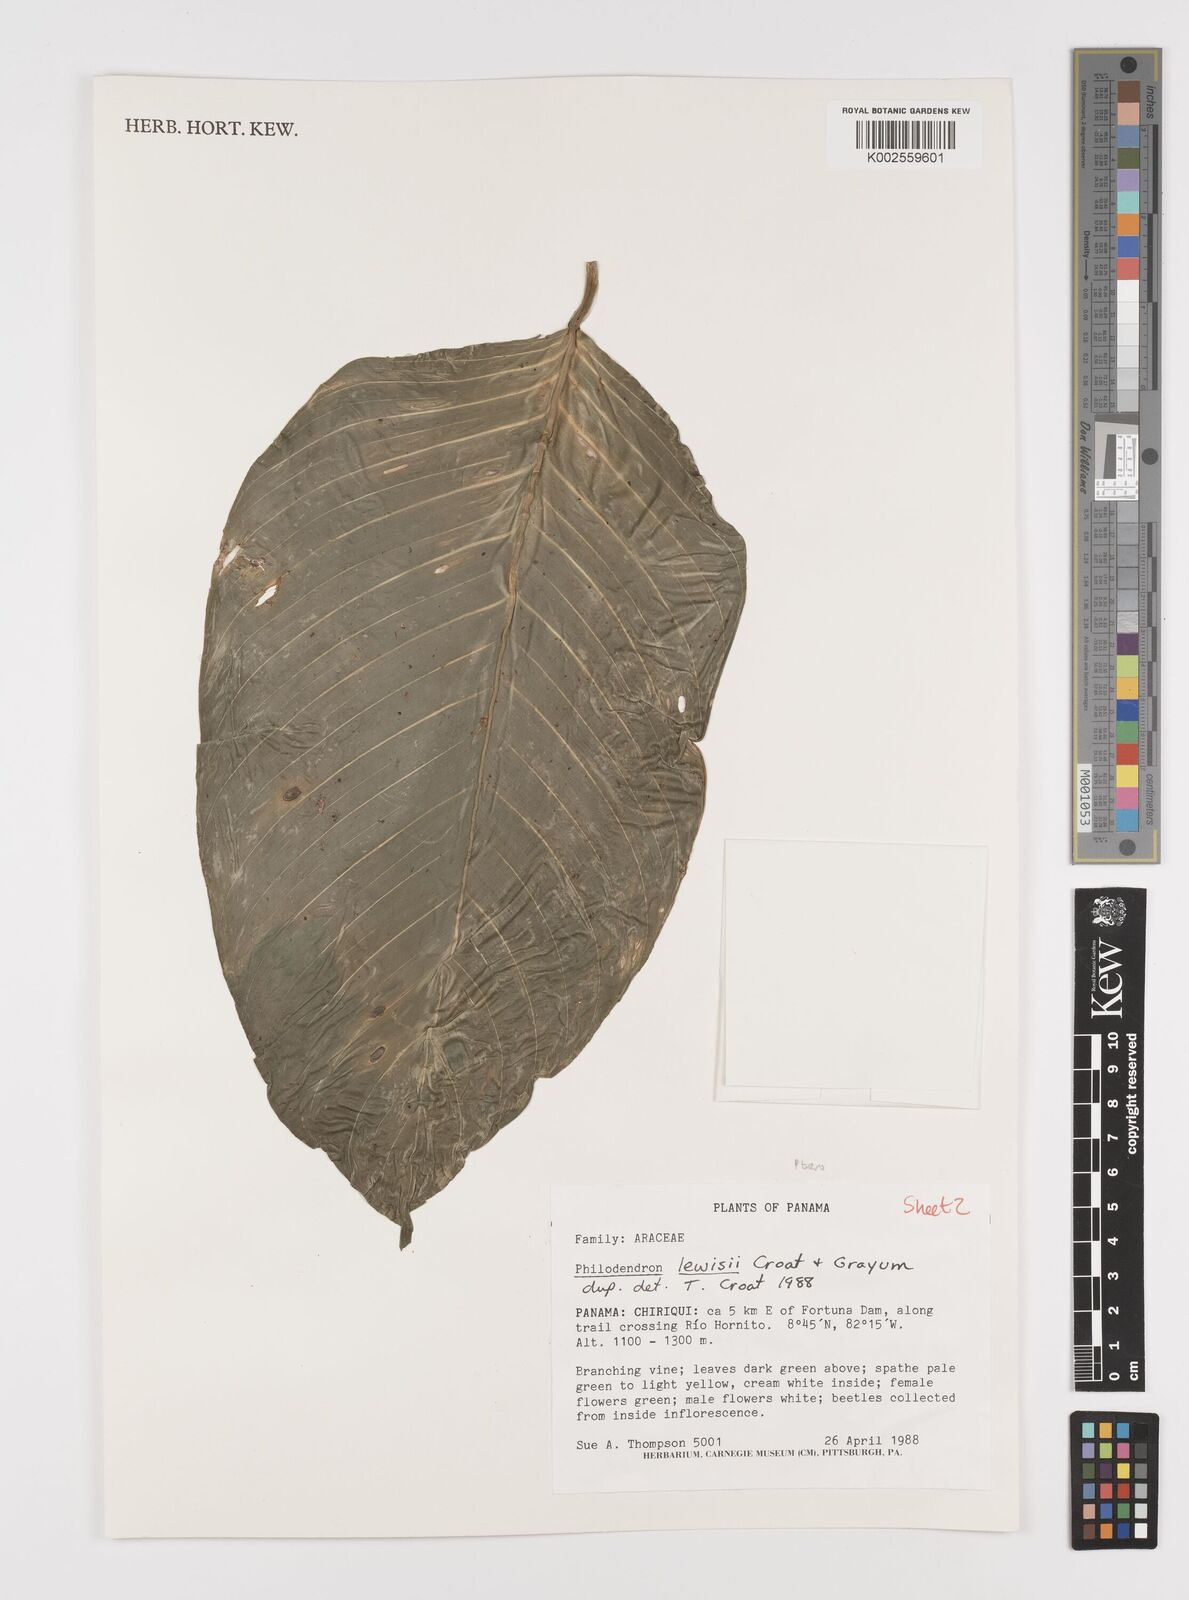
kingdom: Plantae
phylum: Tracheophyta
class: Liliopsida
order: Alismatales
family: Araceae
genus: Philodendron
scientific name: Philodendron rhodoaxis
